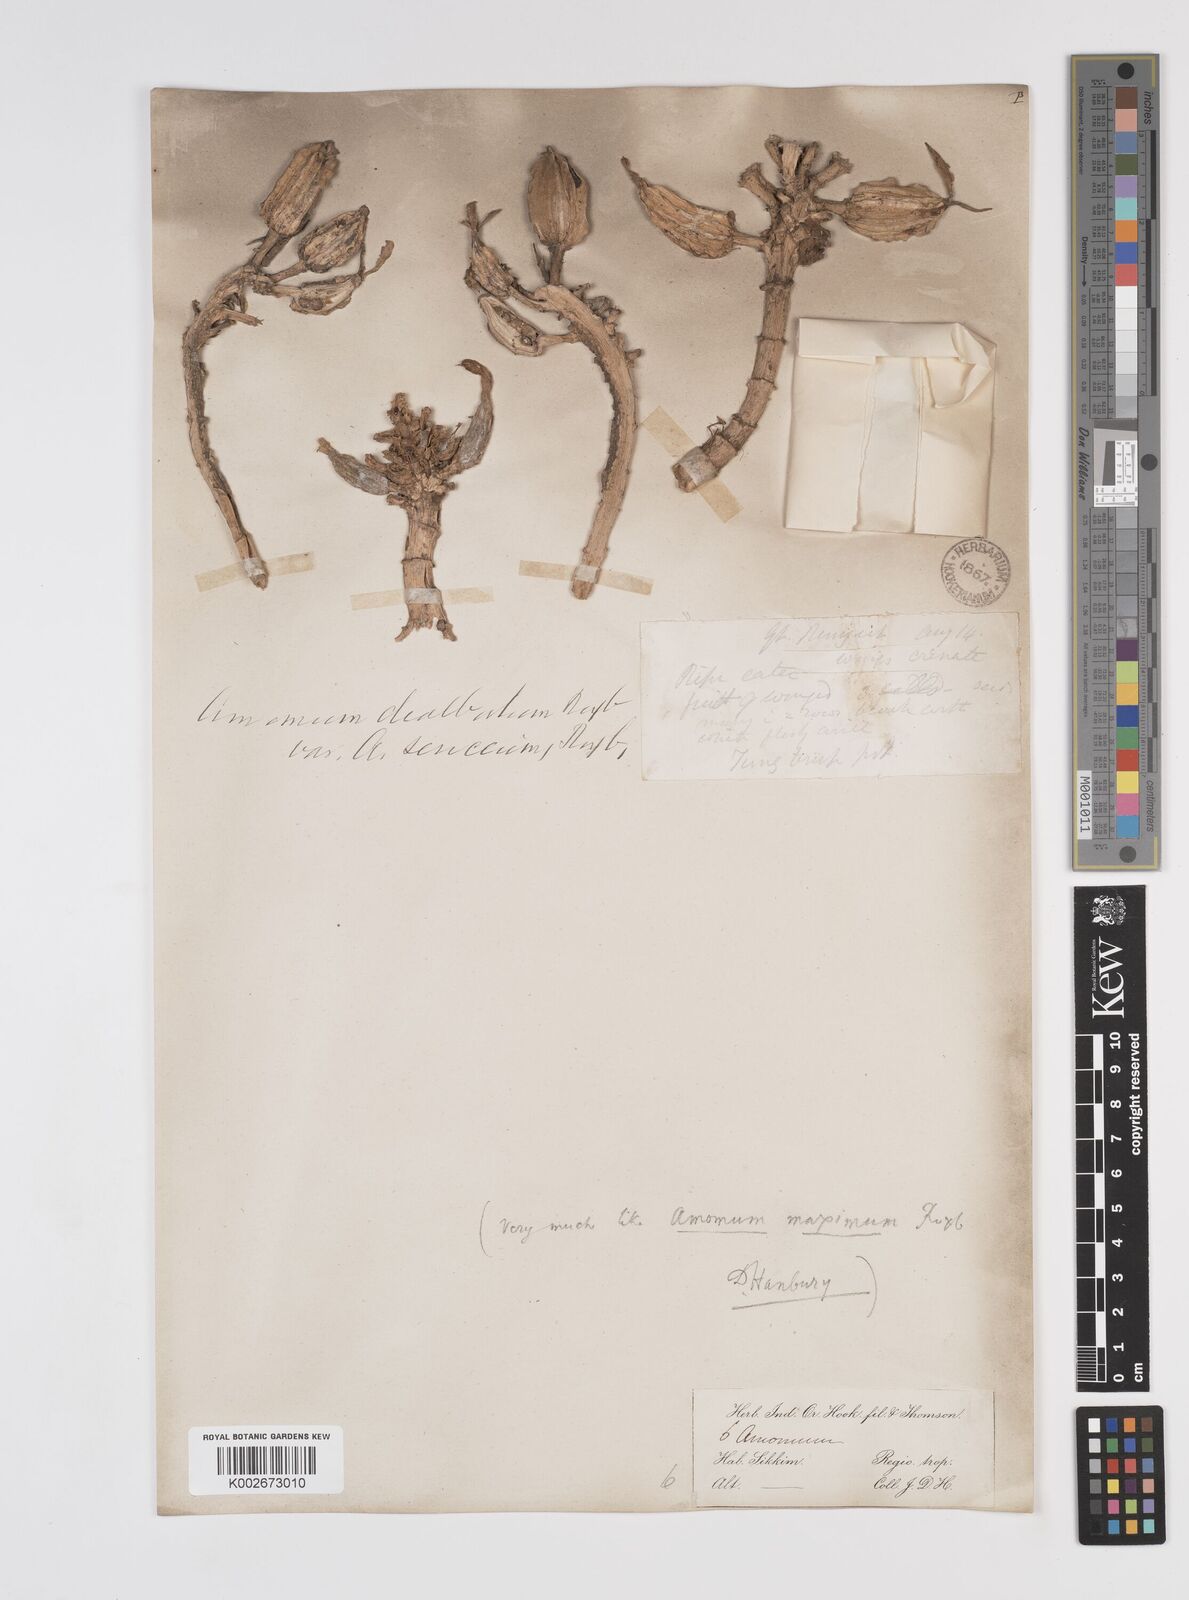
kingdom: Plantae
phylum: Tracheophyta
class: Liliopsida
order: Zingiberales
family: Zingiberaceae
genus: Amomum
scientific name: Amomum dealbatum
